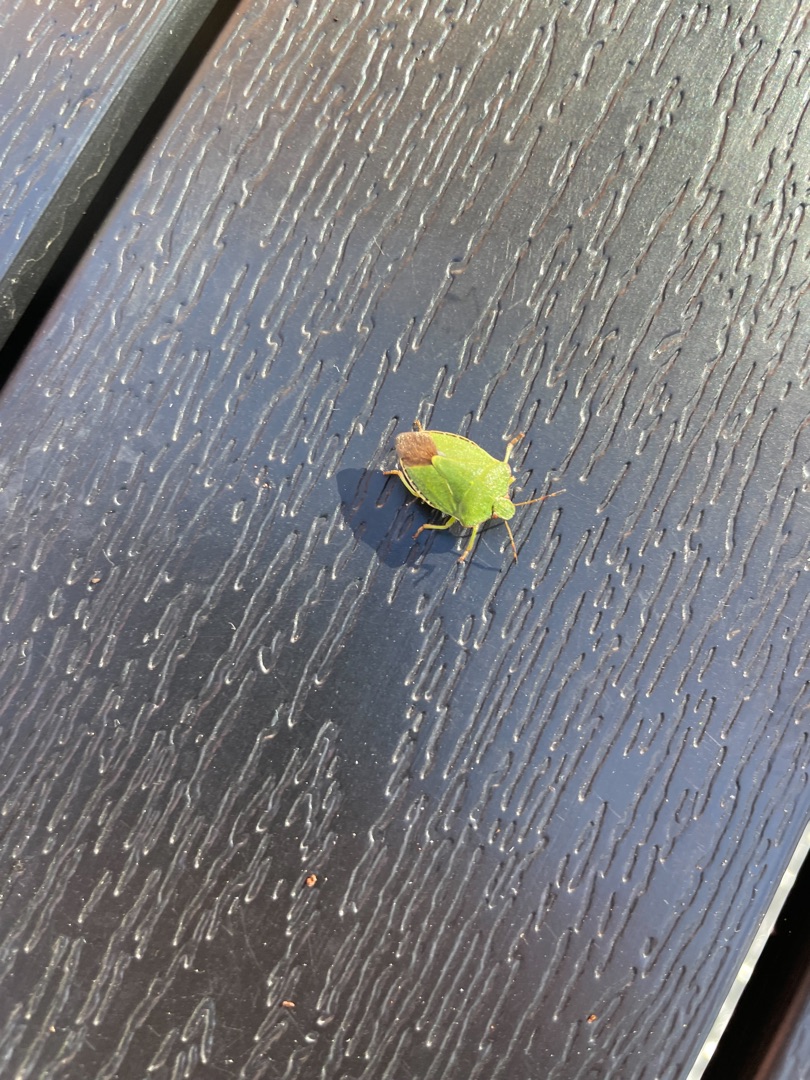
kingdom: Animalia
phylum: Arthropoda
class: Insecta
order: Hemiptera
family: Pentatomidae
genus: Palomena
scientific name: Palomena prasina
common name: Grøn bredtæge
